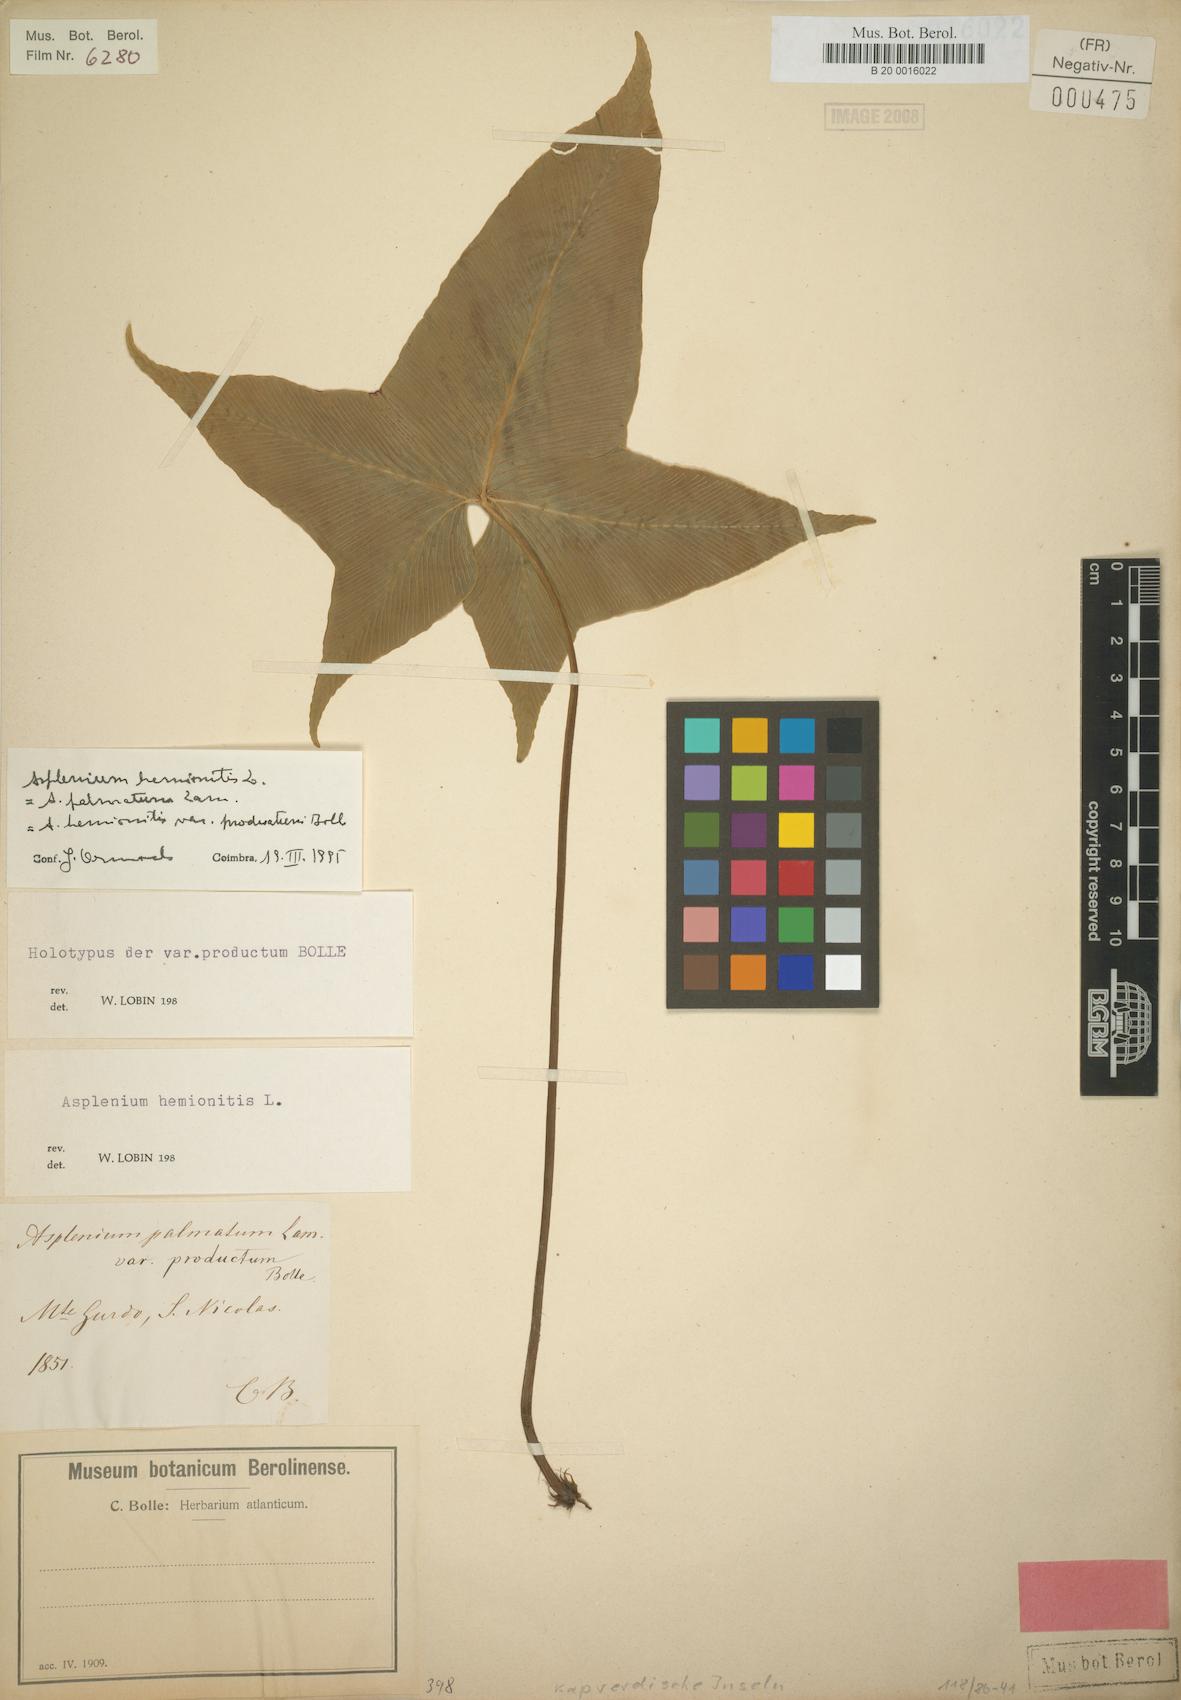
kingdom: Plantae
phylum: Tracheophyta
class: Polypodiopsida
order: Polypodiales
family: Aspleniaceae
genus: Asplenium
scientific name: Asplenium hemionitis
